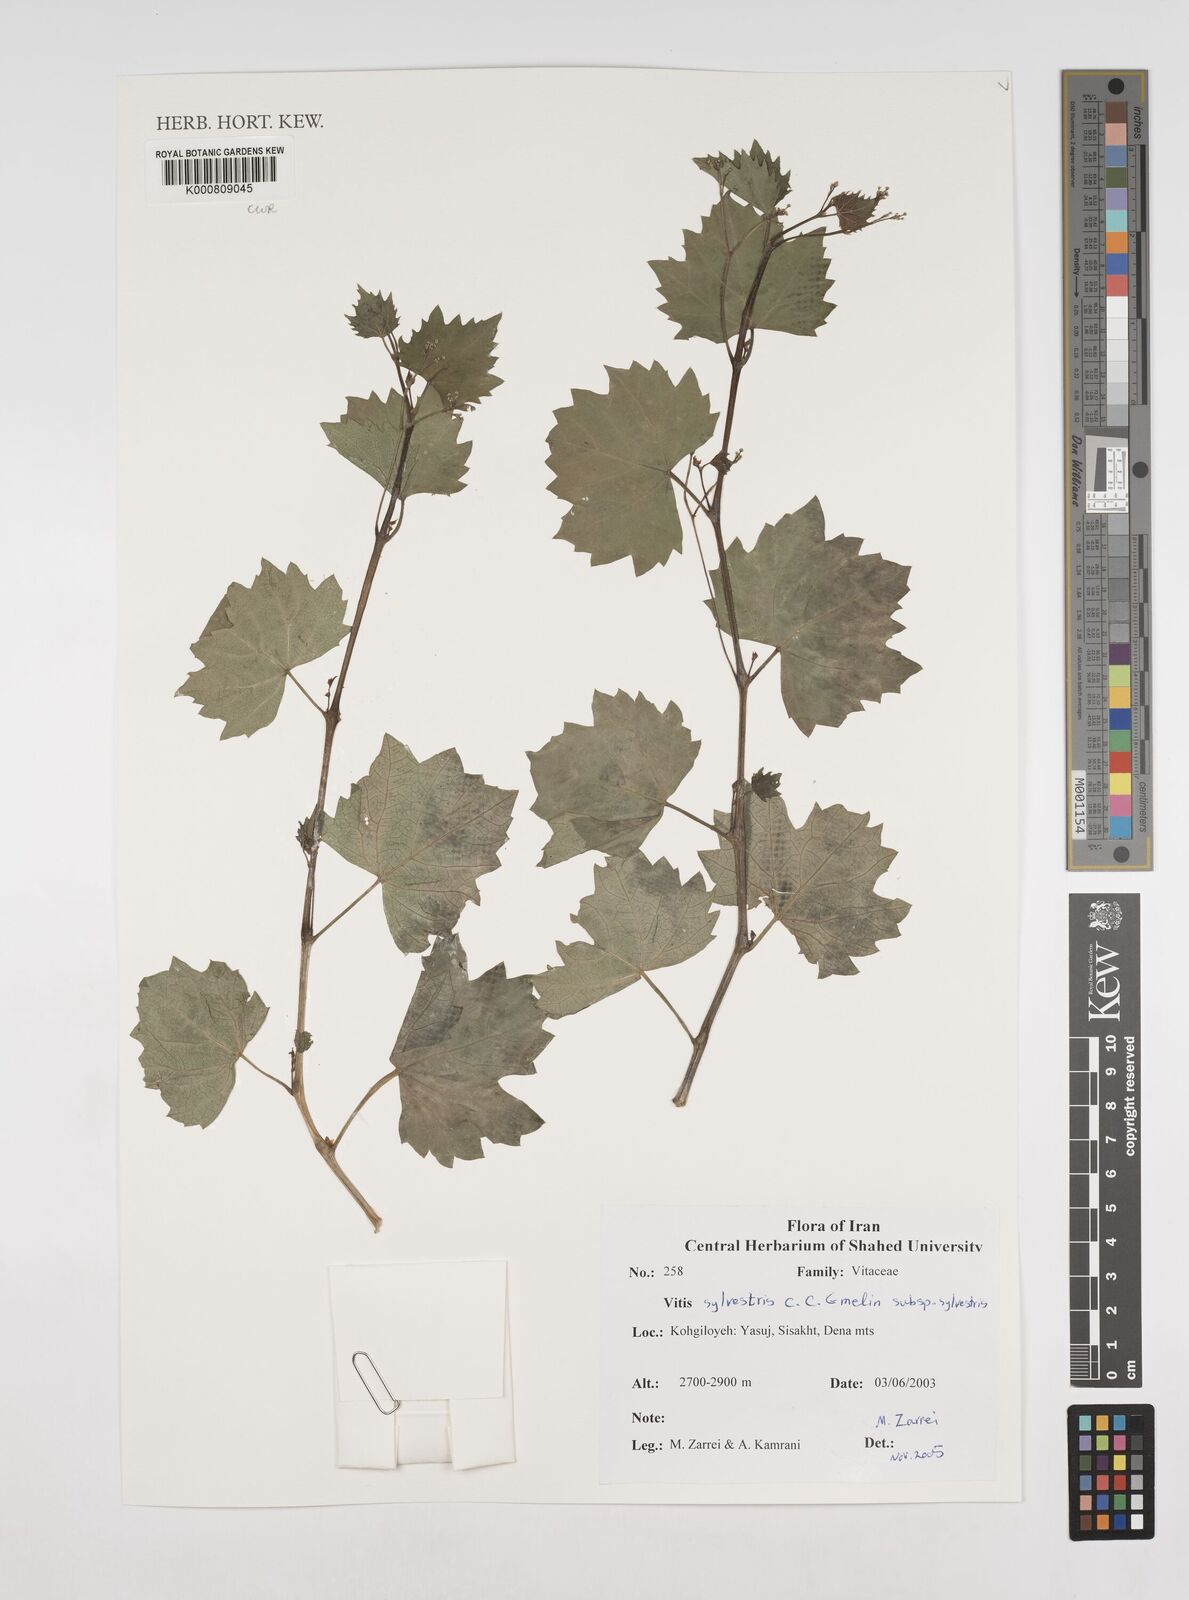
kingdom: Plantae
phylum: Tracheophyta
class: Magnoliopsida
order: Vitales
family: Vitaceae
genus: Vitis
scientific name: Vitis gmelinii
